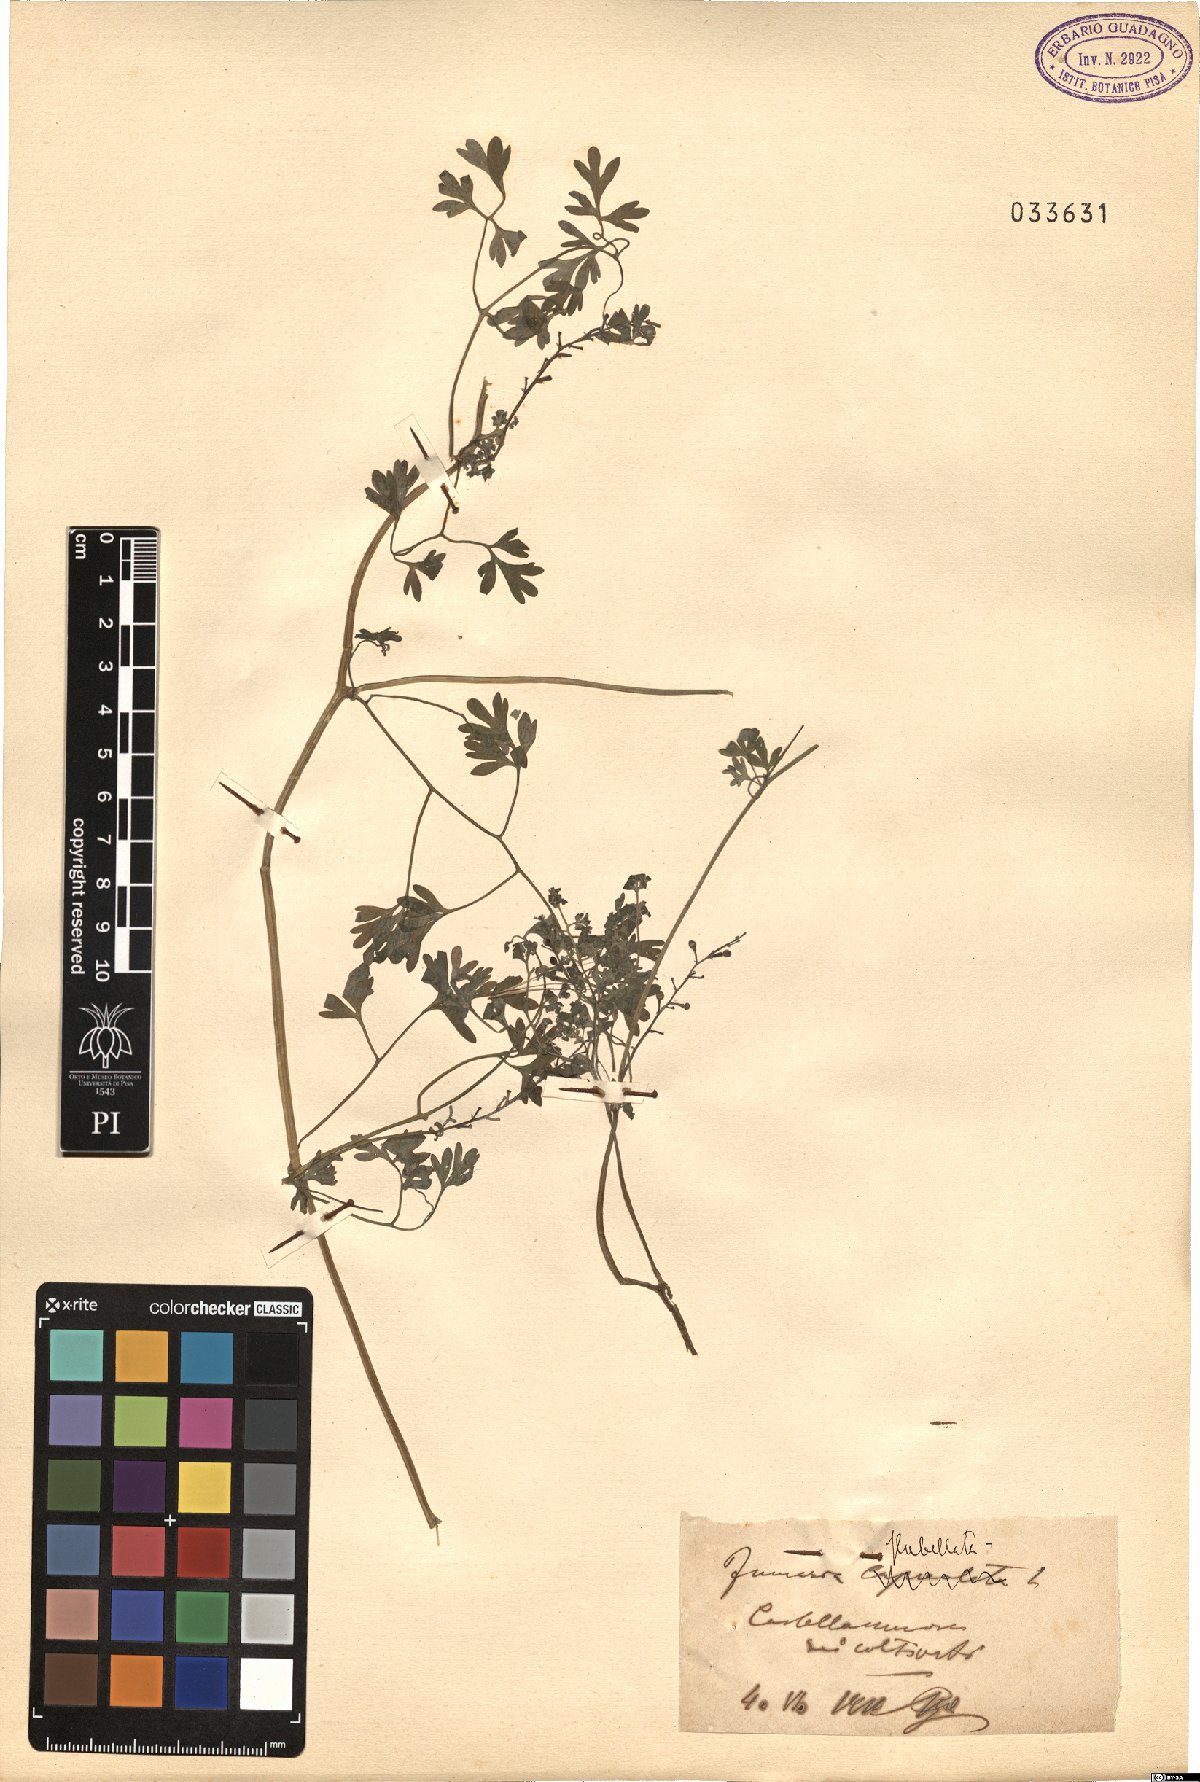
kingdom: Plantae
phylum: Tracheophyta
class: Magnoliopsida
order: Ranunculales
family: Papaveraceae
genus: Fumaria
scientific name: Fumaria flabellata
